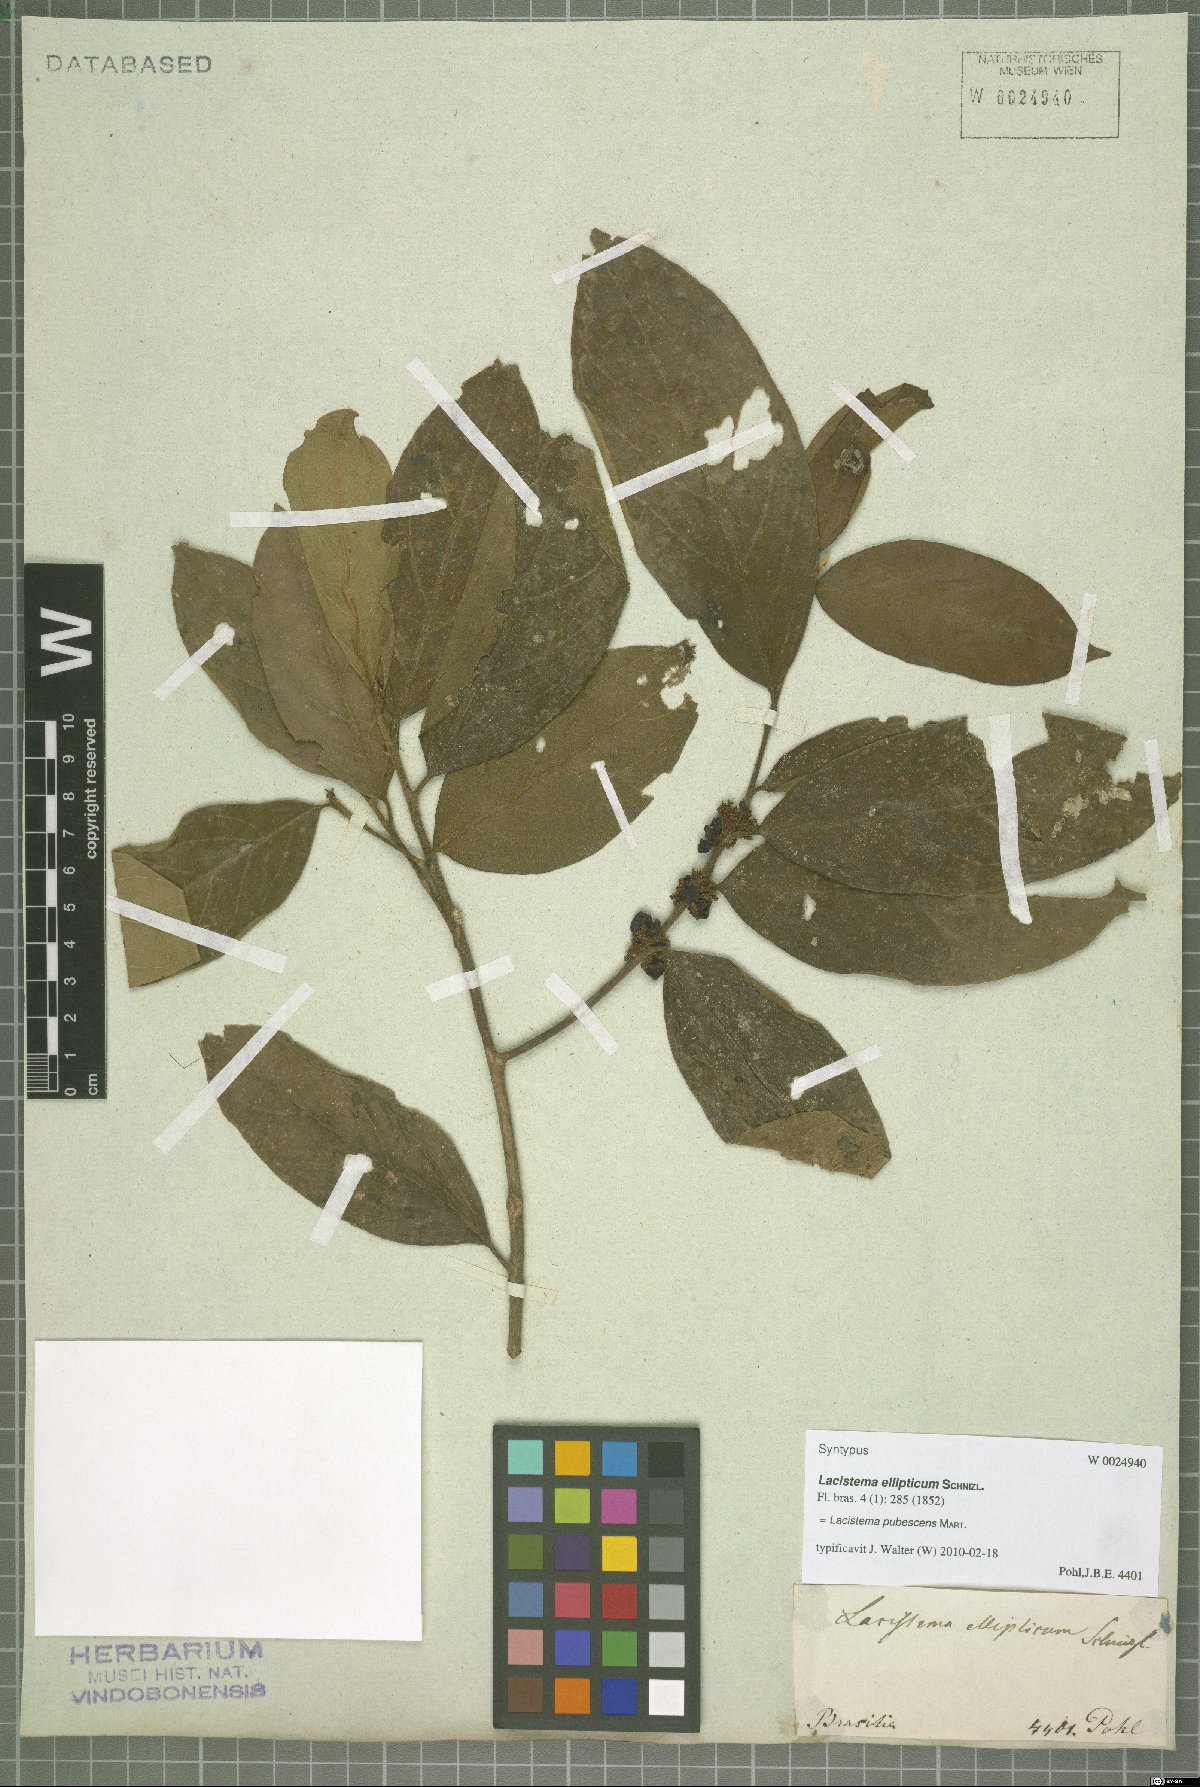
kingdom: Plantae
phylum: Tracheophyta
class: Magnoliopsida
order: Malpighiales
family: Lacistemataceae
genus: Lacistema
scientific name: Lacistema pubescens
